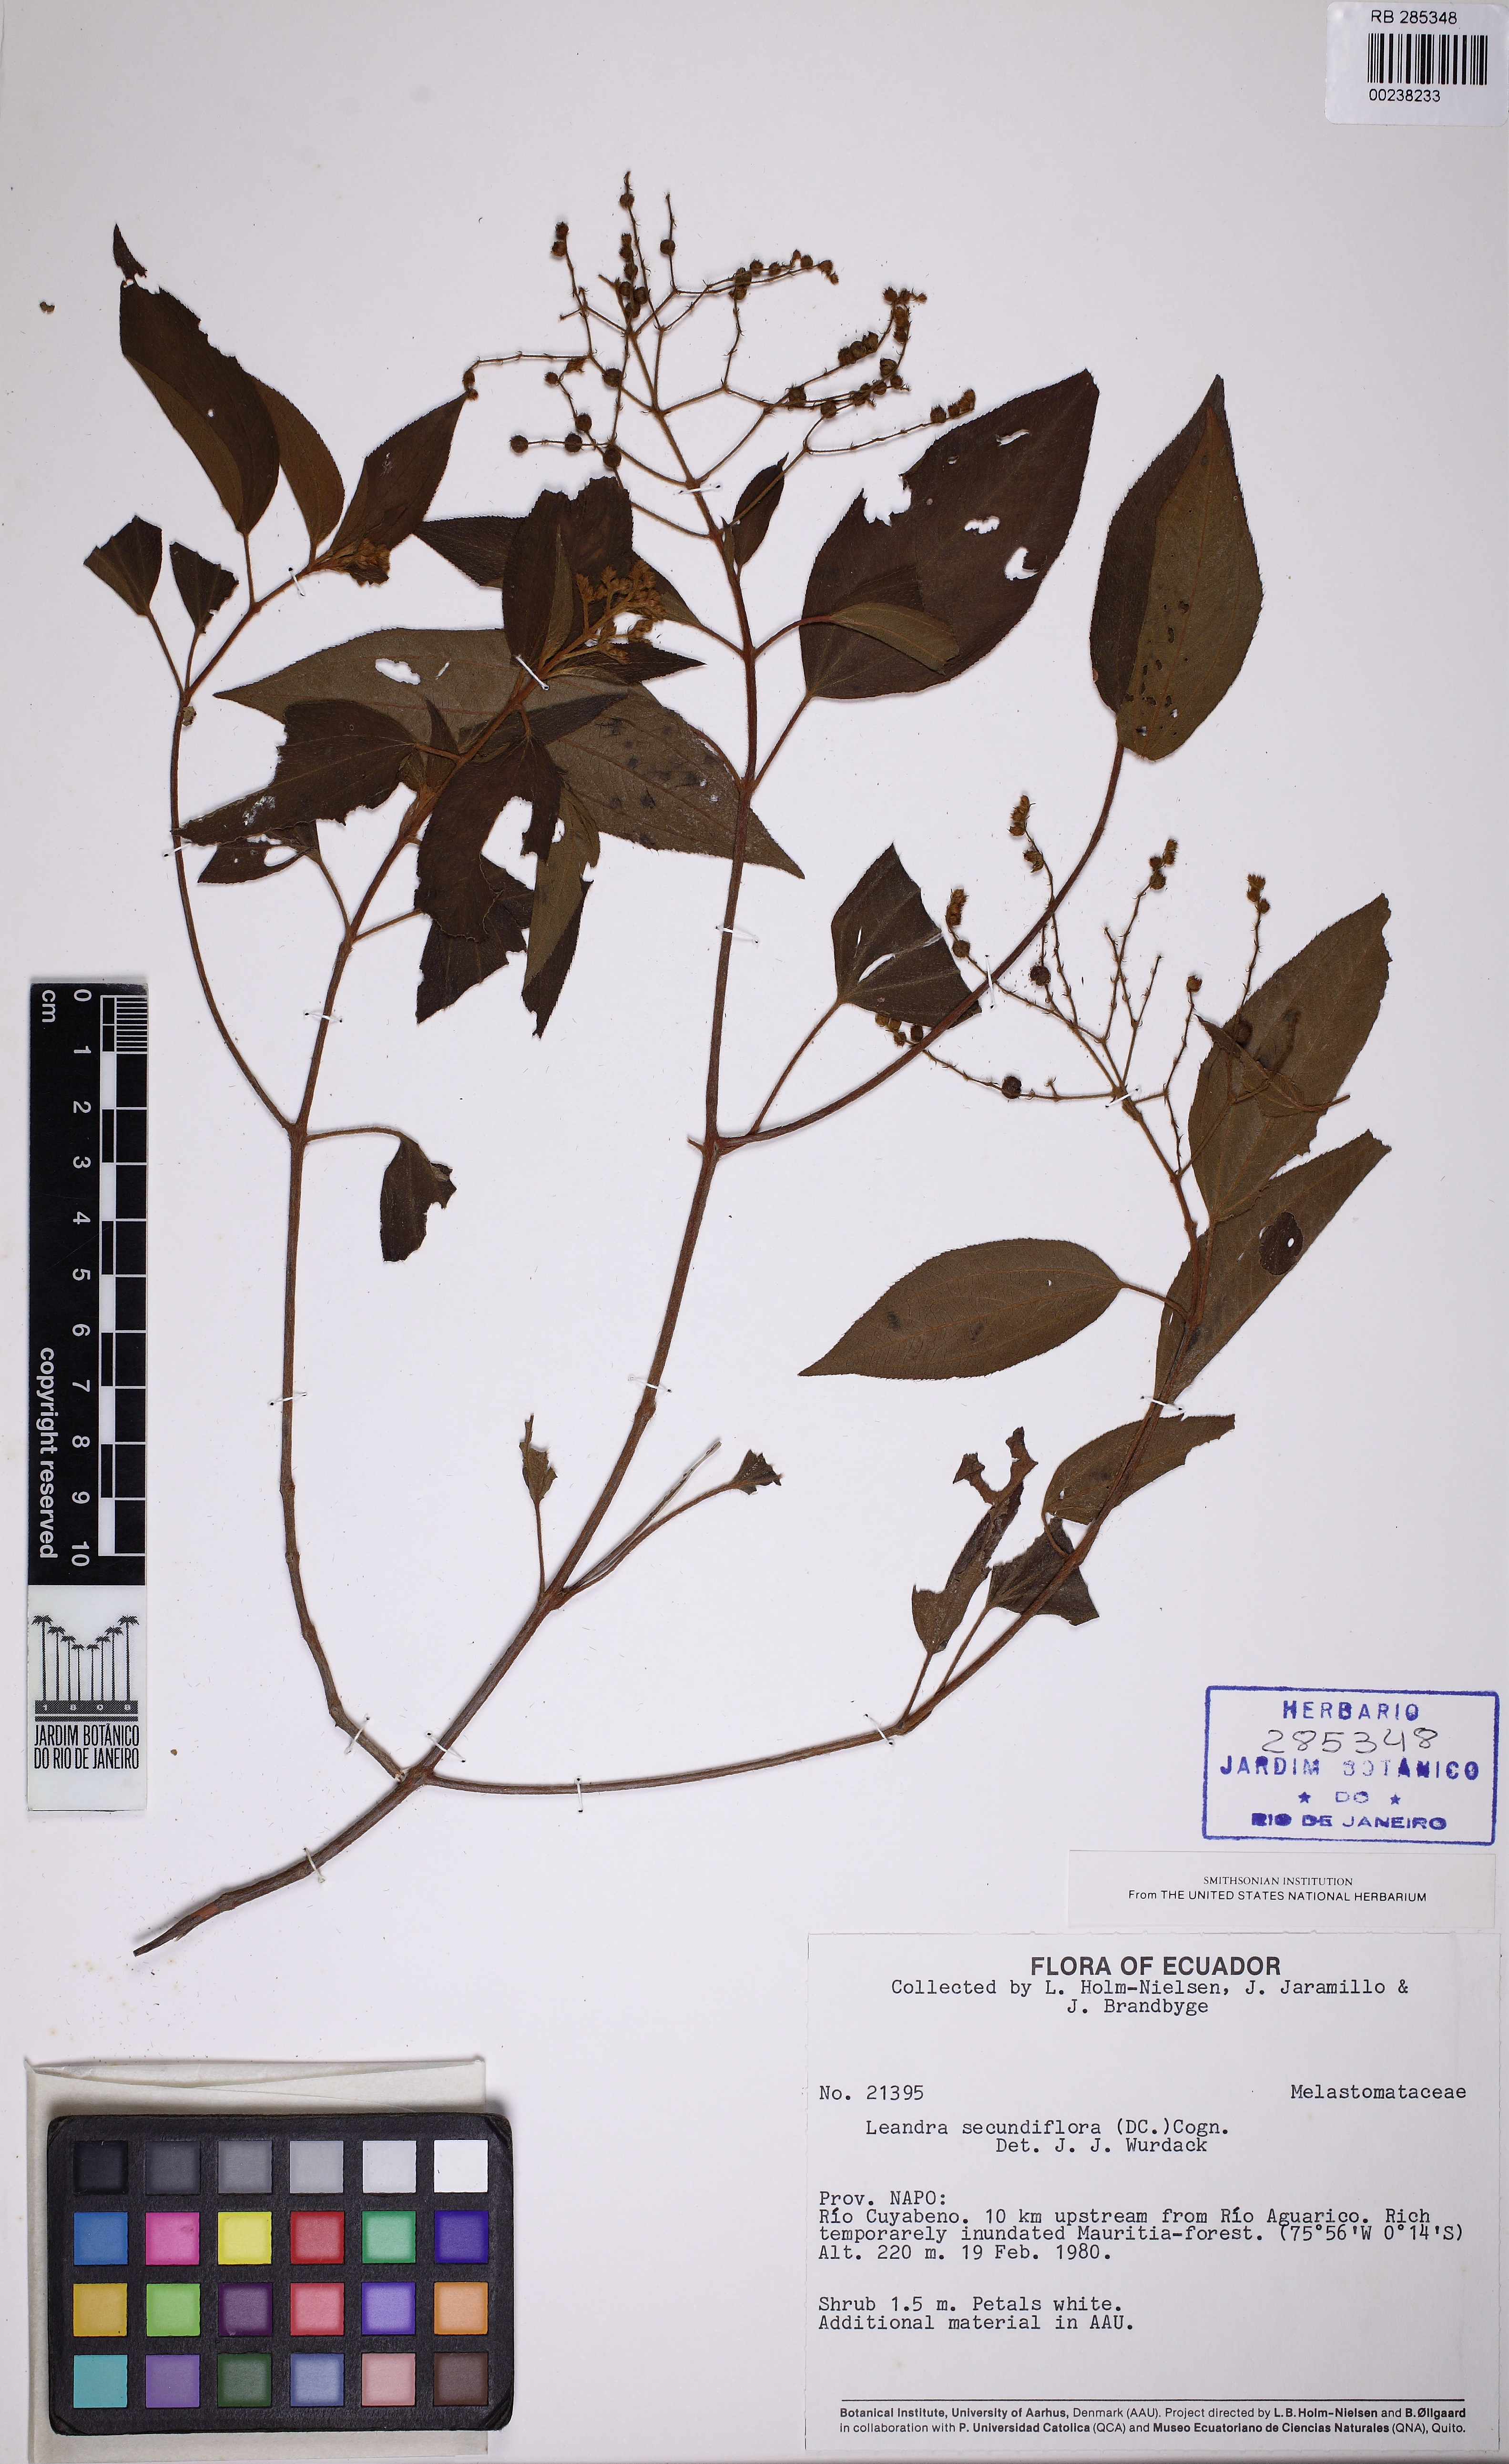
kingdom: Plantae
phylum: Tracheophyta
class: Magnoliopsida
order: Myrtales
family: Melastomataceae
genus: Miconia
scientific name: Miconia neosecundiflora
